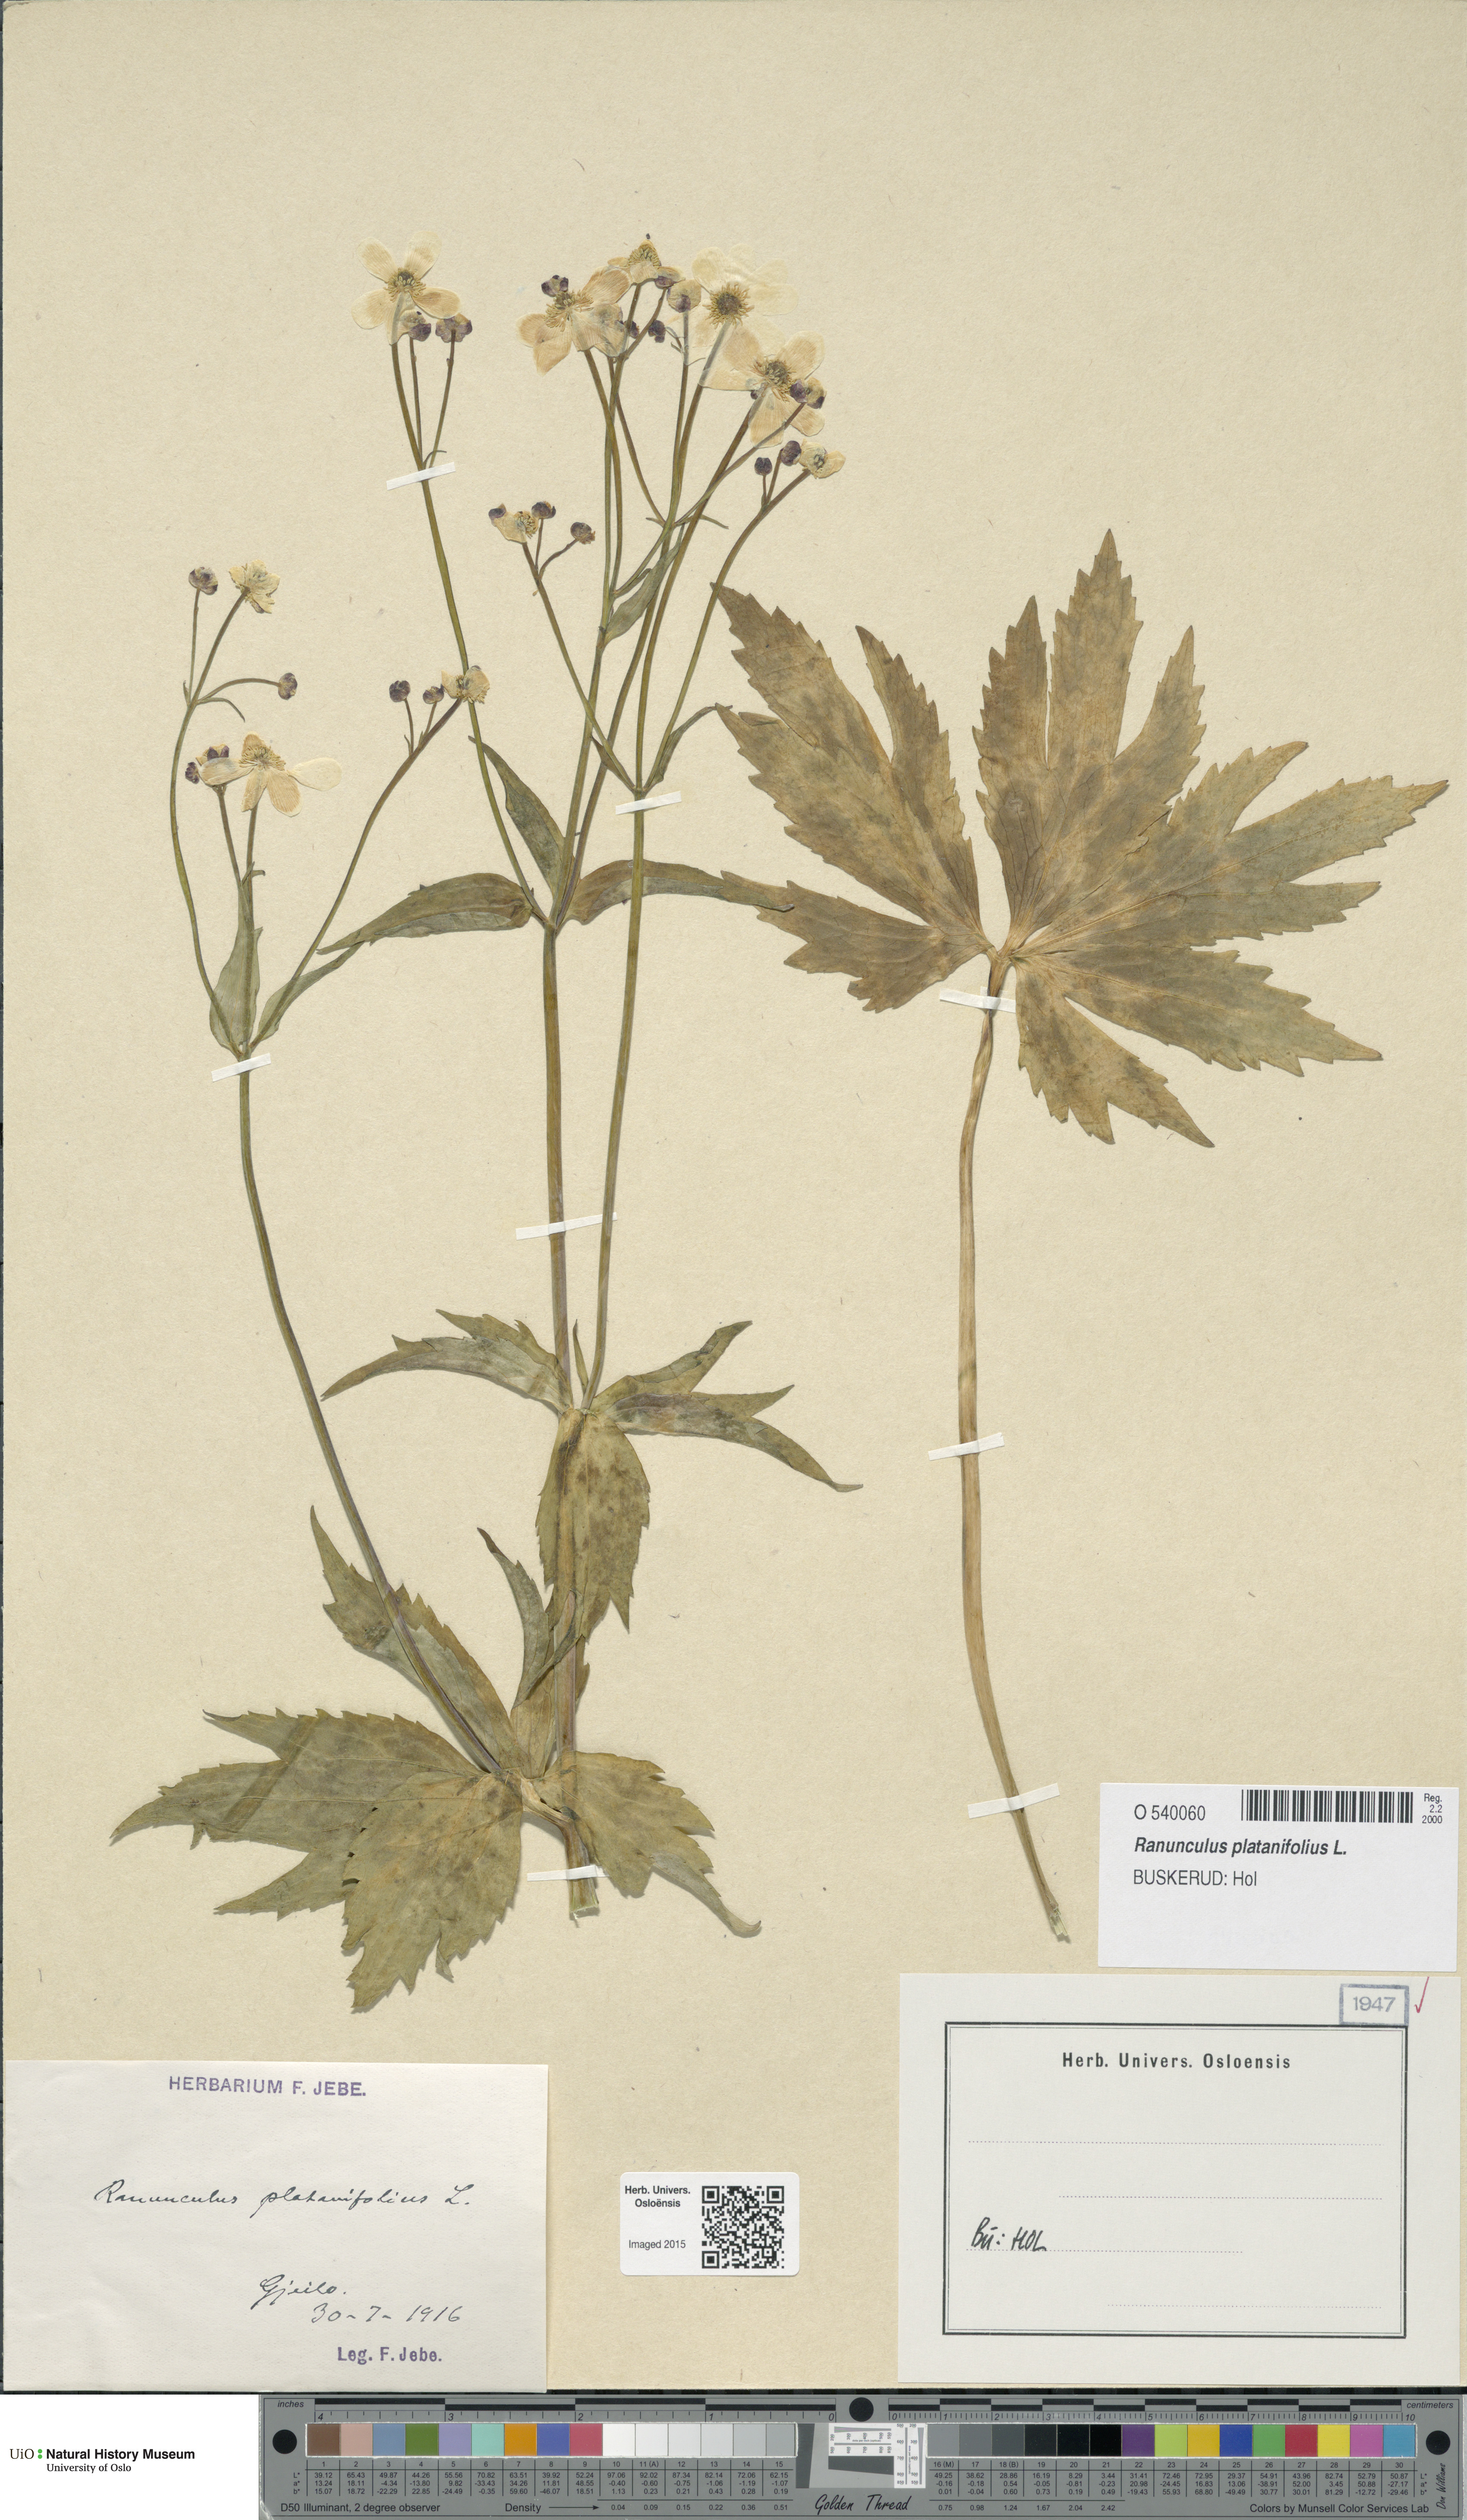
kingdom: Plantae
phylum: Tracheophyta
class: Magnoliopsida
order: Ranunculales
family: Ranunculaceae
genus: Ranunculus
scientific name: Ranunculus platanifolius
